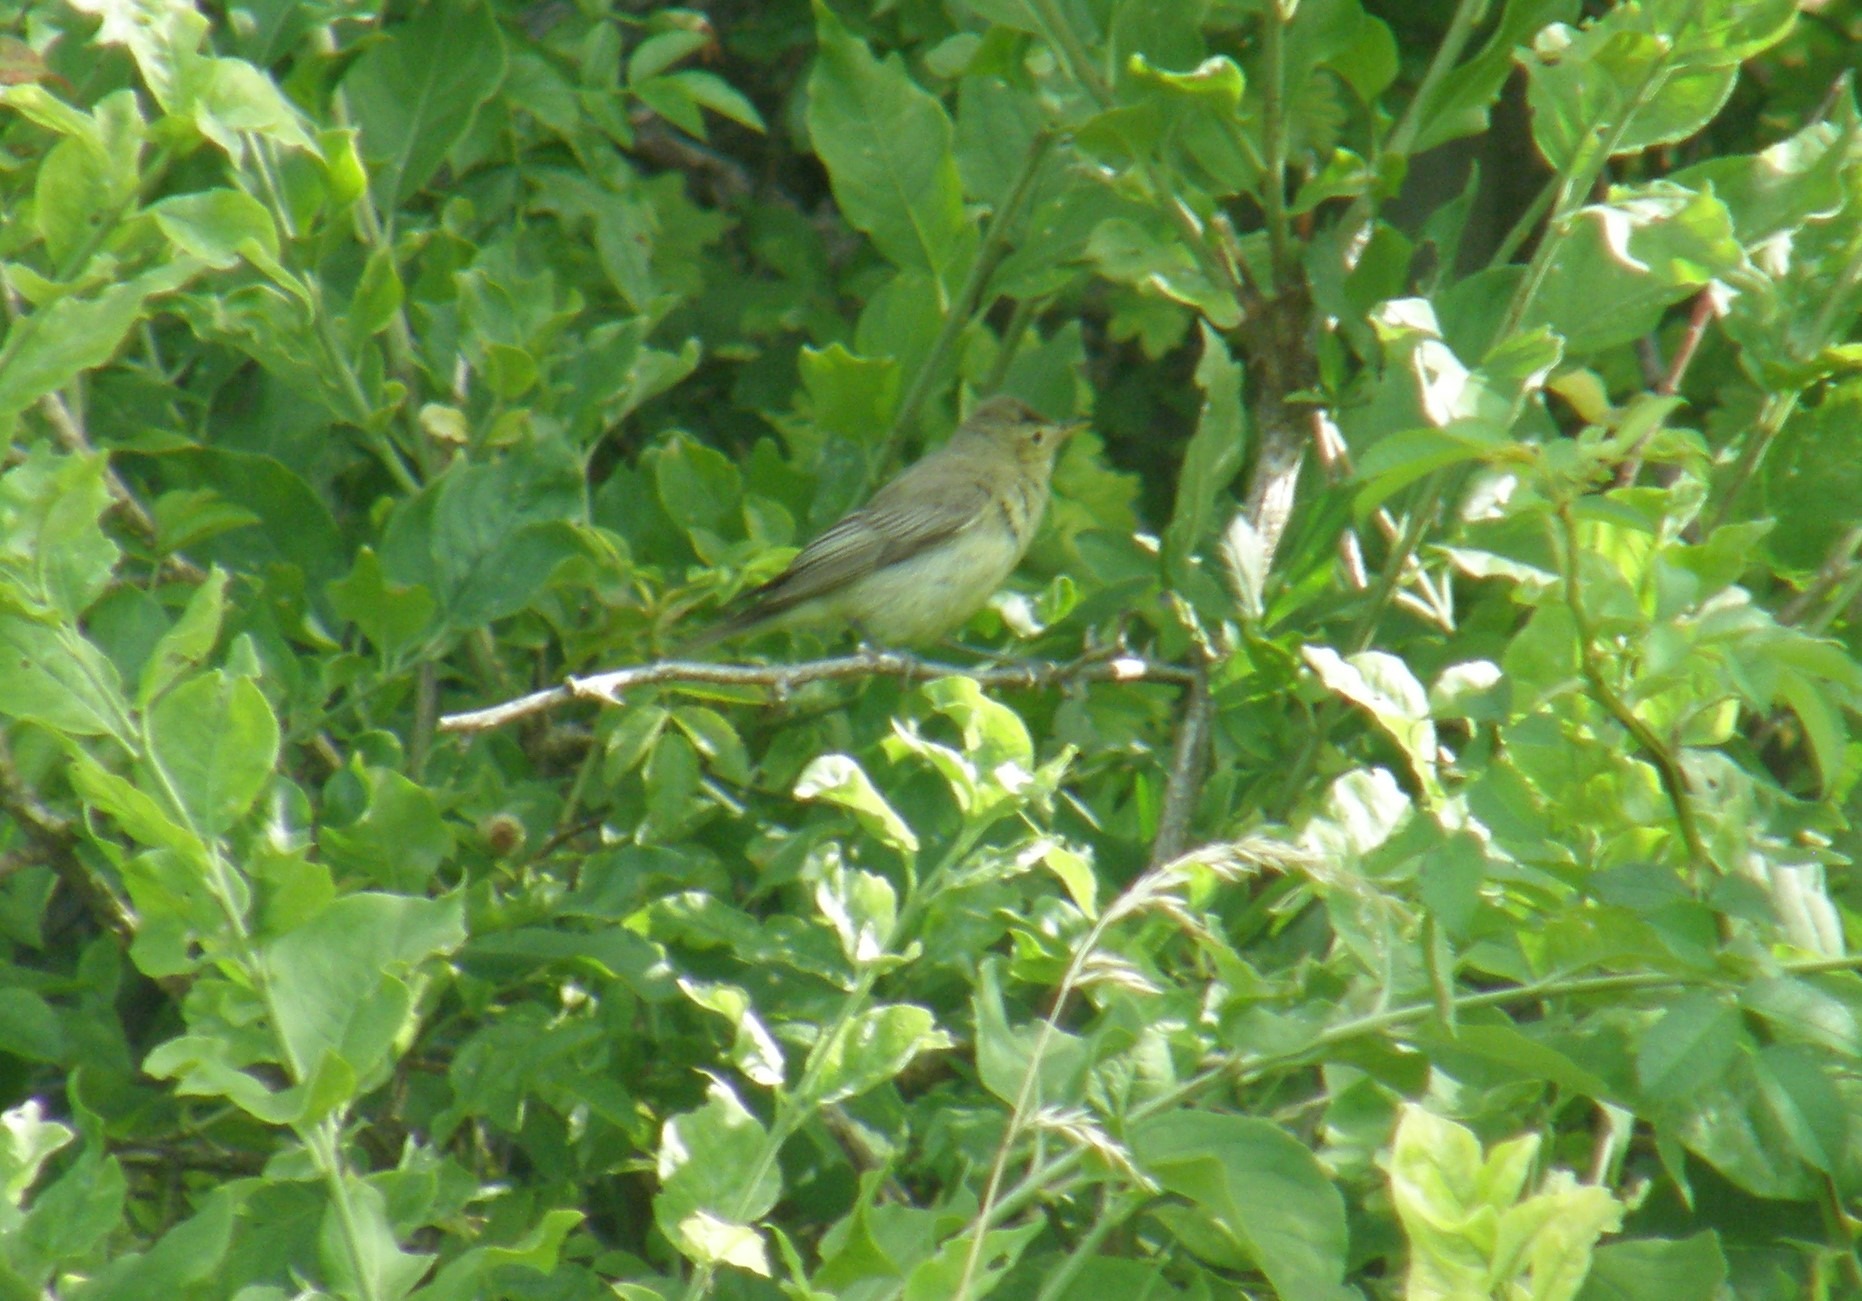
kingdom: Animalia
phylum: Chordata
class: Aves
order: Passeriformes
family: Acrocephalidae
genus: Hippolais
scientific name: Hippolais icterina
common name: Gulbug
